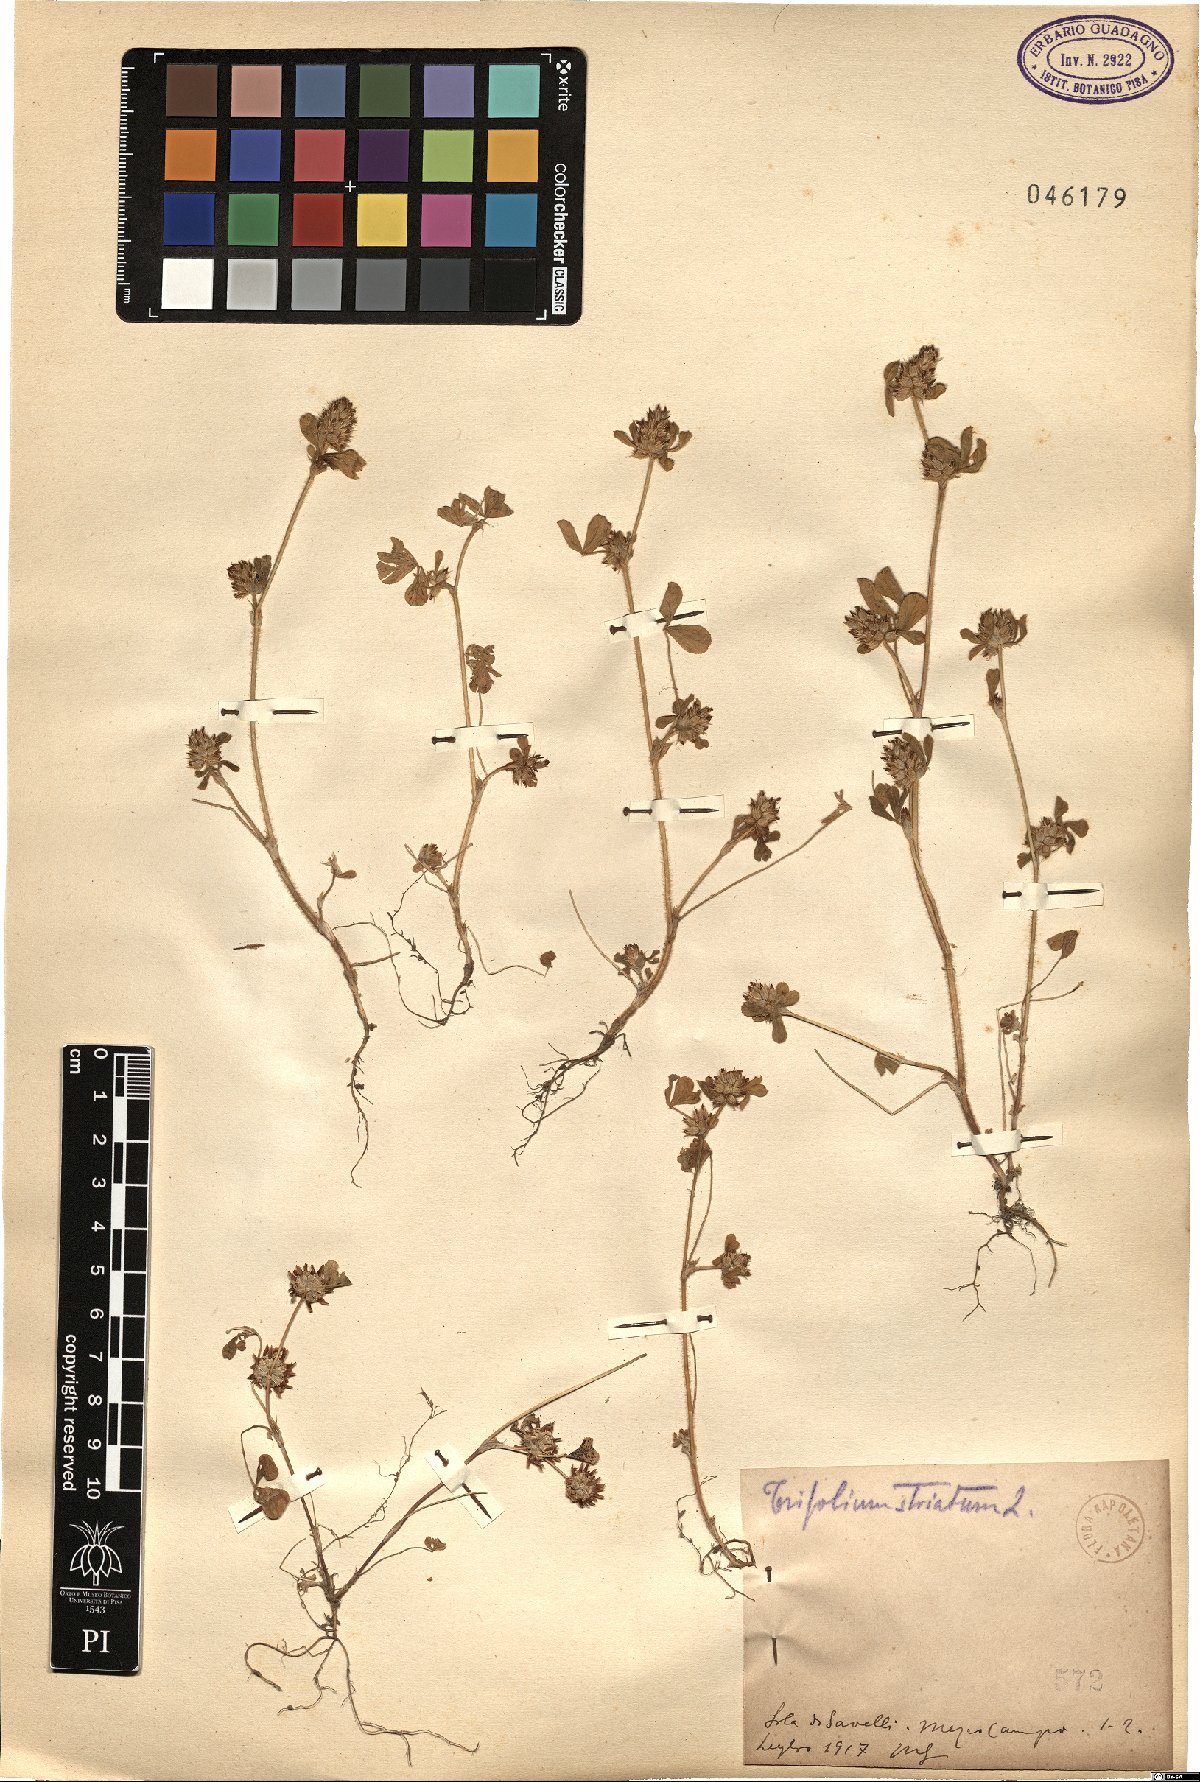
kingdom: Plantae
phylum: Tracheophyta
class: Magnoliopsida
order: Fabales
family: Fabaceae
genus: Trifolium
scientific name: Trifolium striatum
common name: Knotted clover
